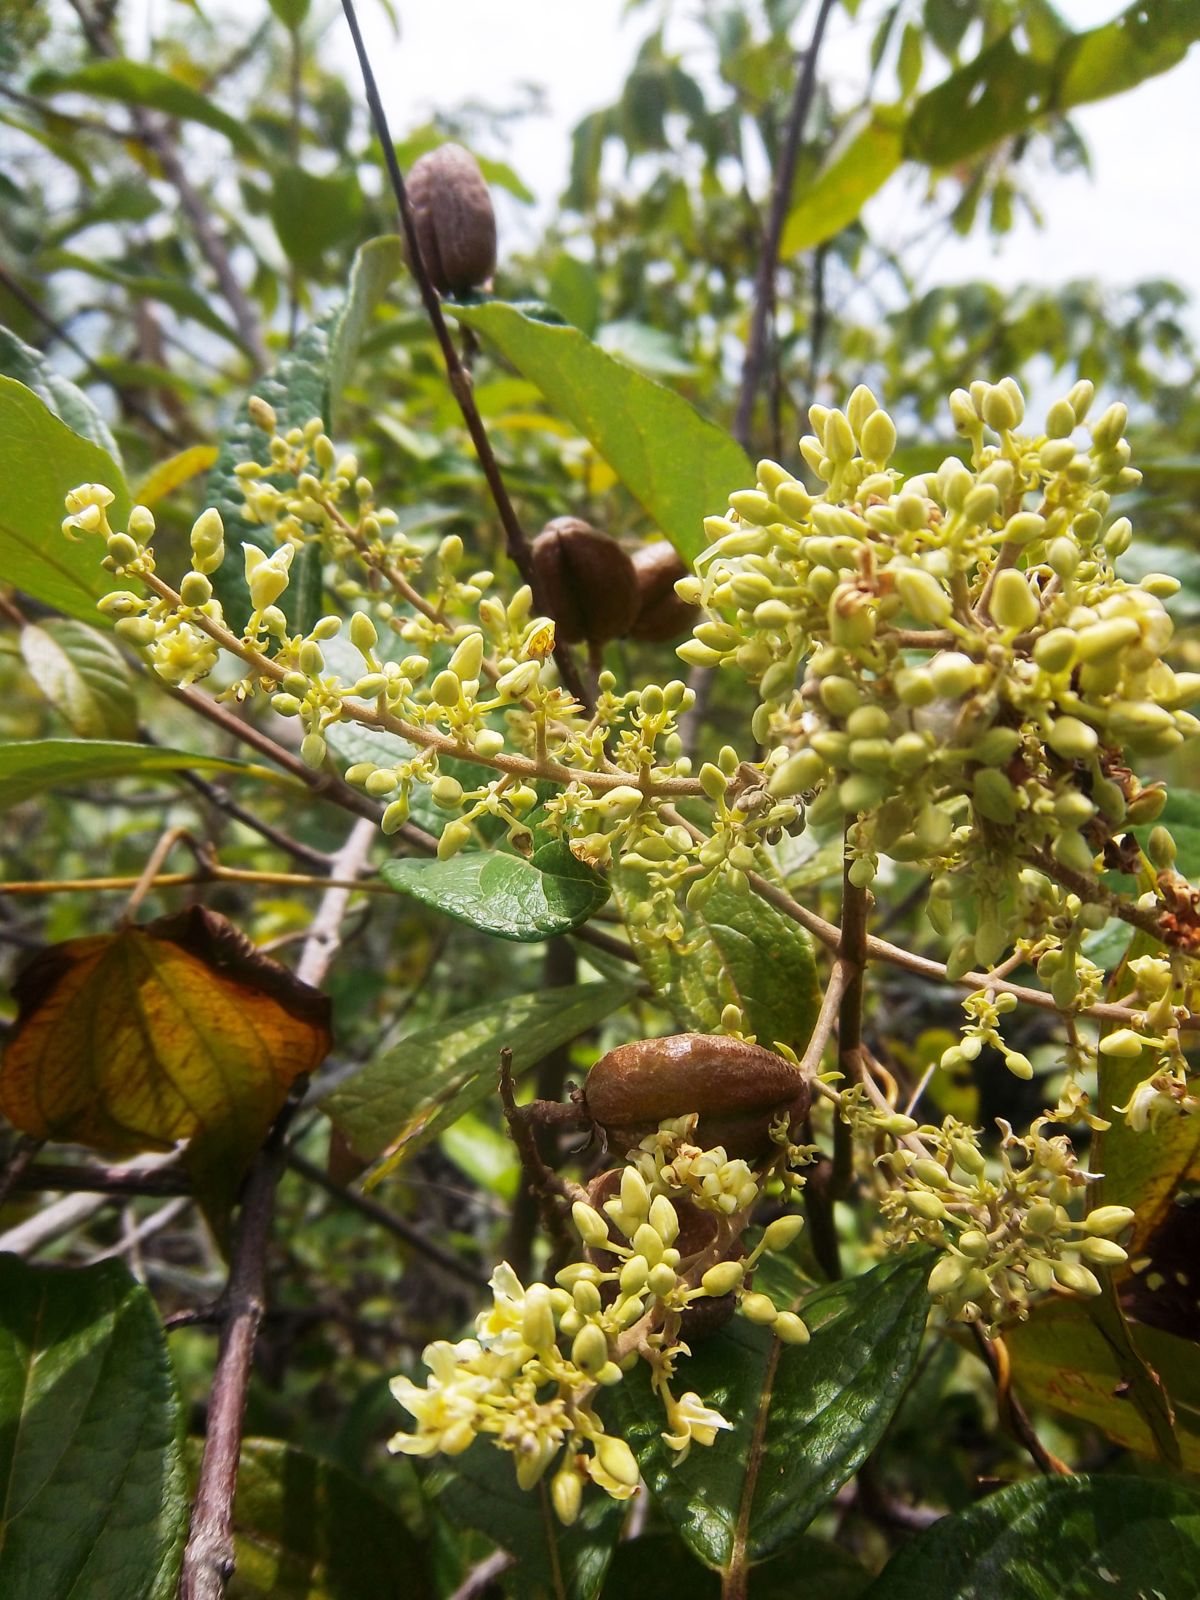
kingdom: Plantae
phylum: Tracheophyta
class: Magnoliopsida
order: Malpighiales
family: Trigoniaceae
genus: Trigonia
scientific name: Trigonia rugosa
